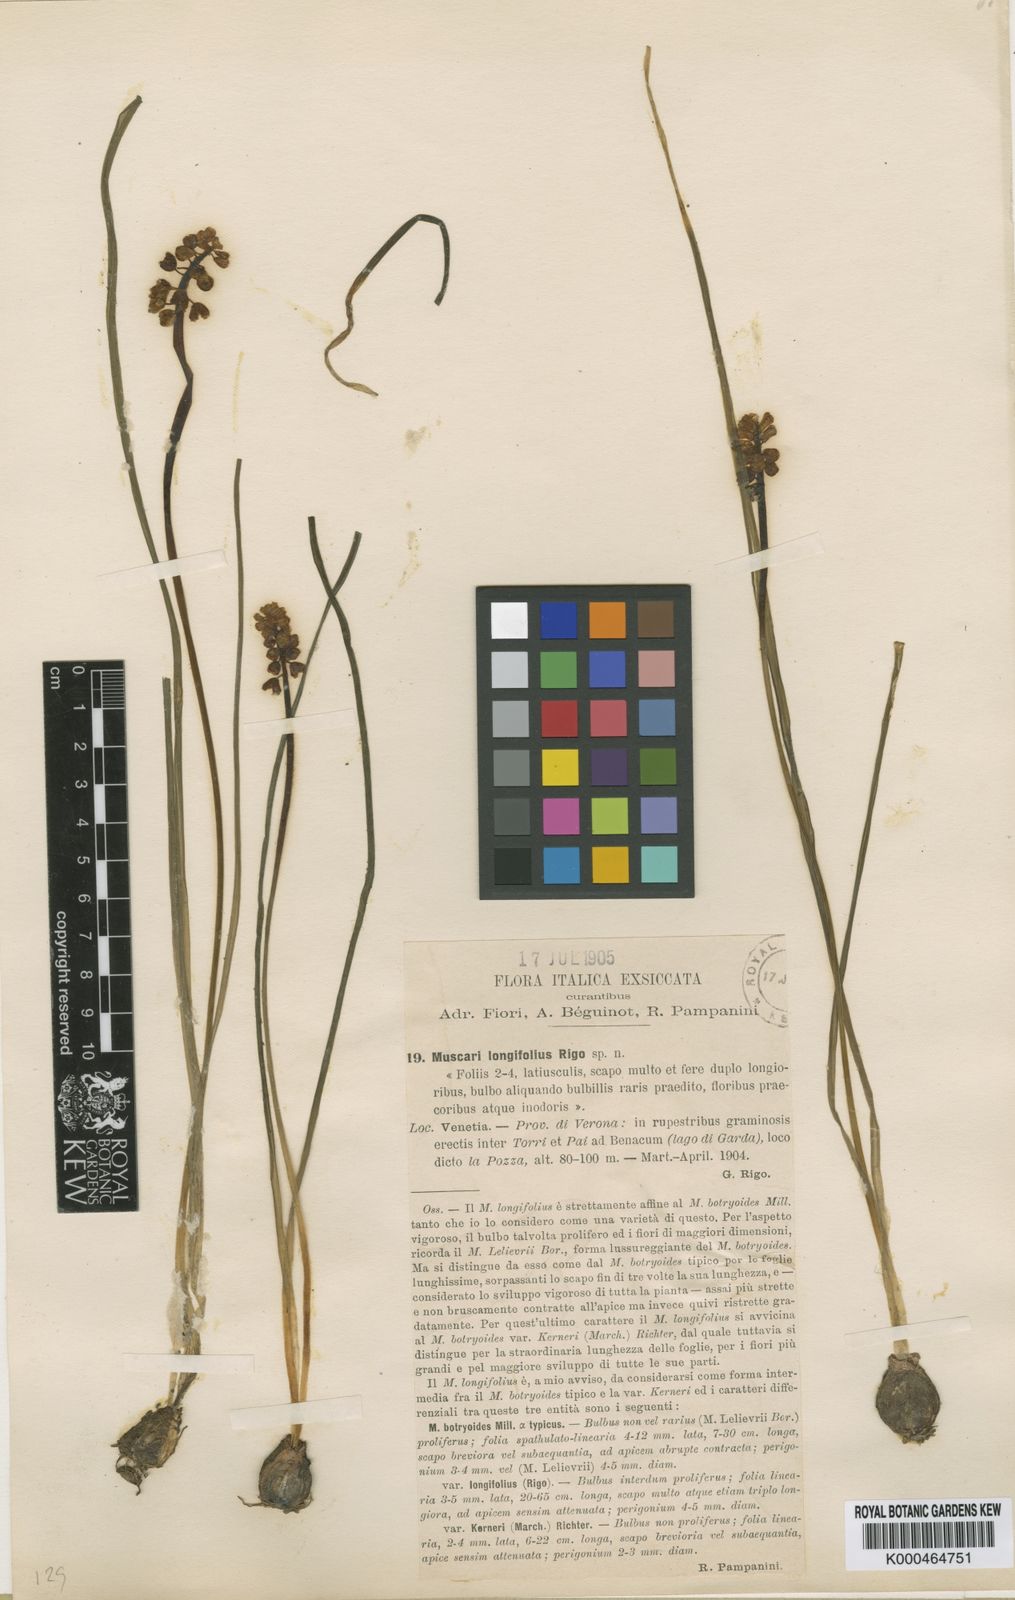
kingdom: Plantae
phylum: Tracheophyta
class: Liliopsida
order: Asparagales
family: Asparagaceae
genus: Muscari
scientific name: Muscari botryoides
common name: Compact grape-hyacinth
